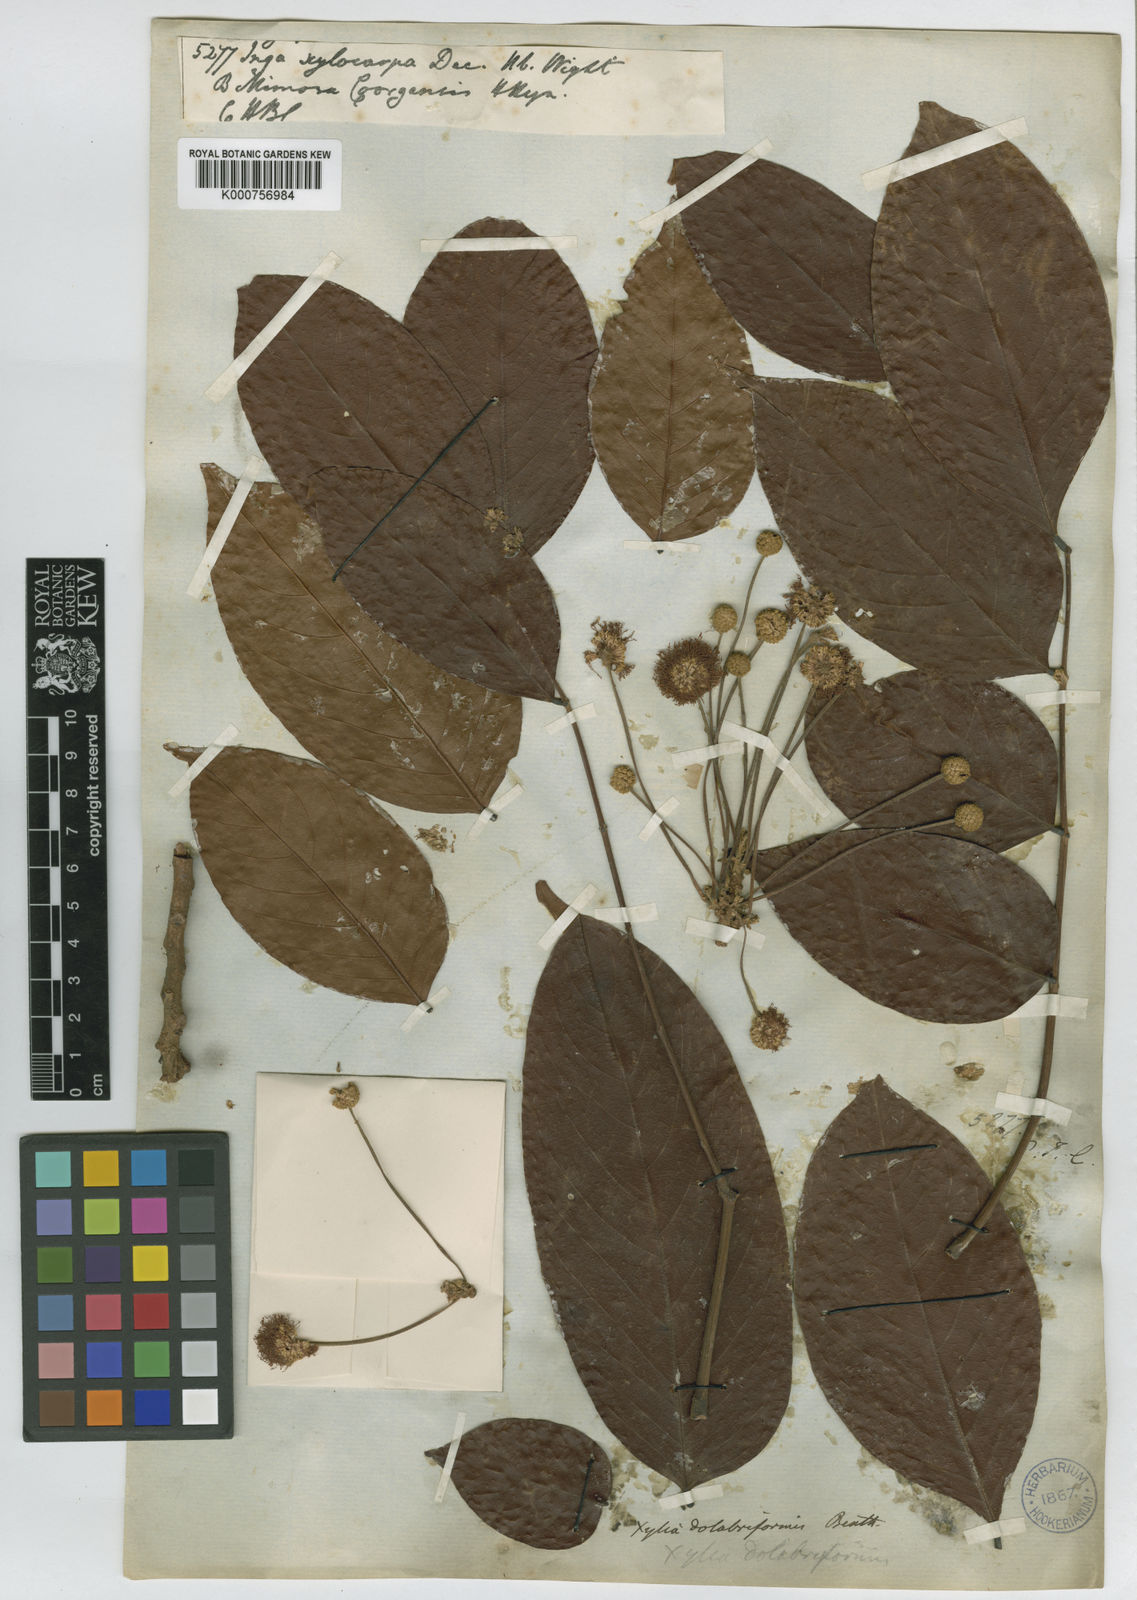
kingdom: Plantae
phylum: Tracheophyta
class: Magnoliopsida
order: Fabales
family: Fabaceae
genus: Xylia
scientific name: Xylia
